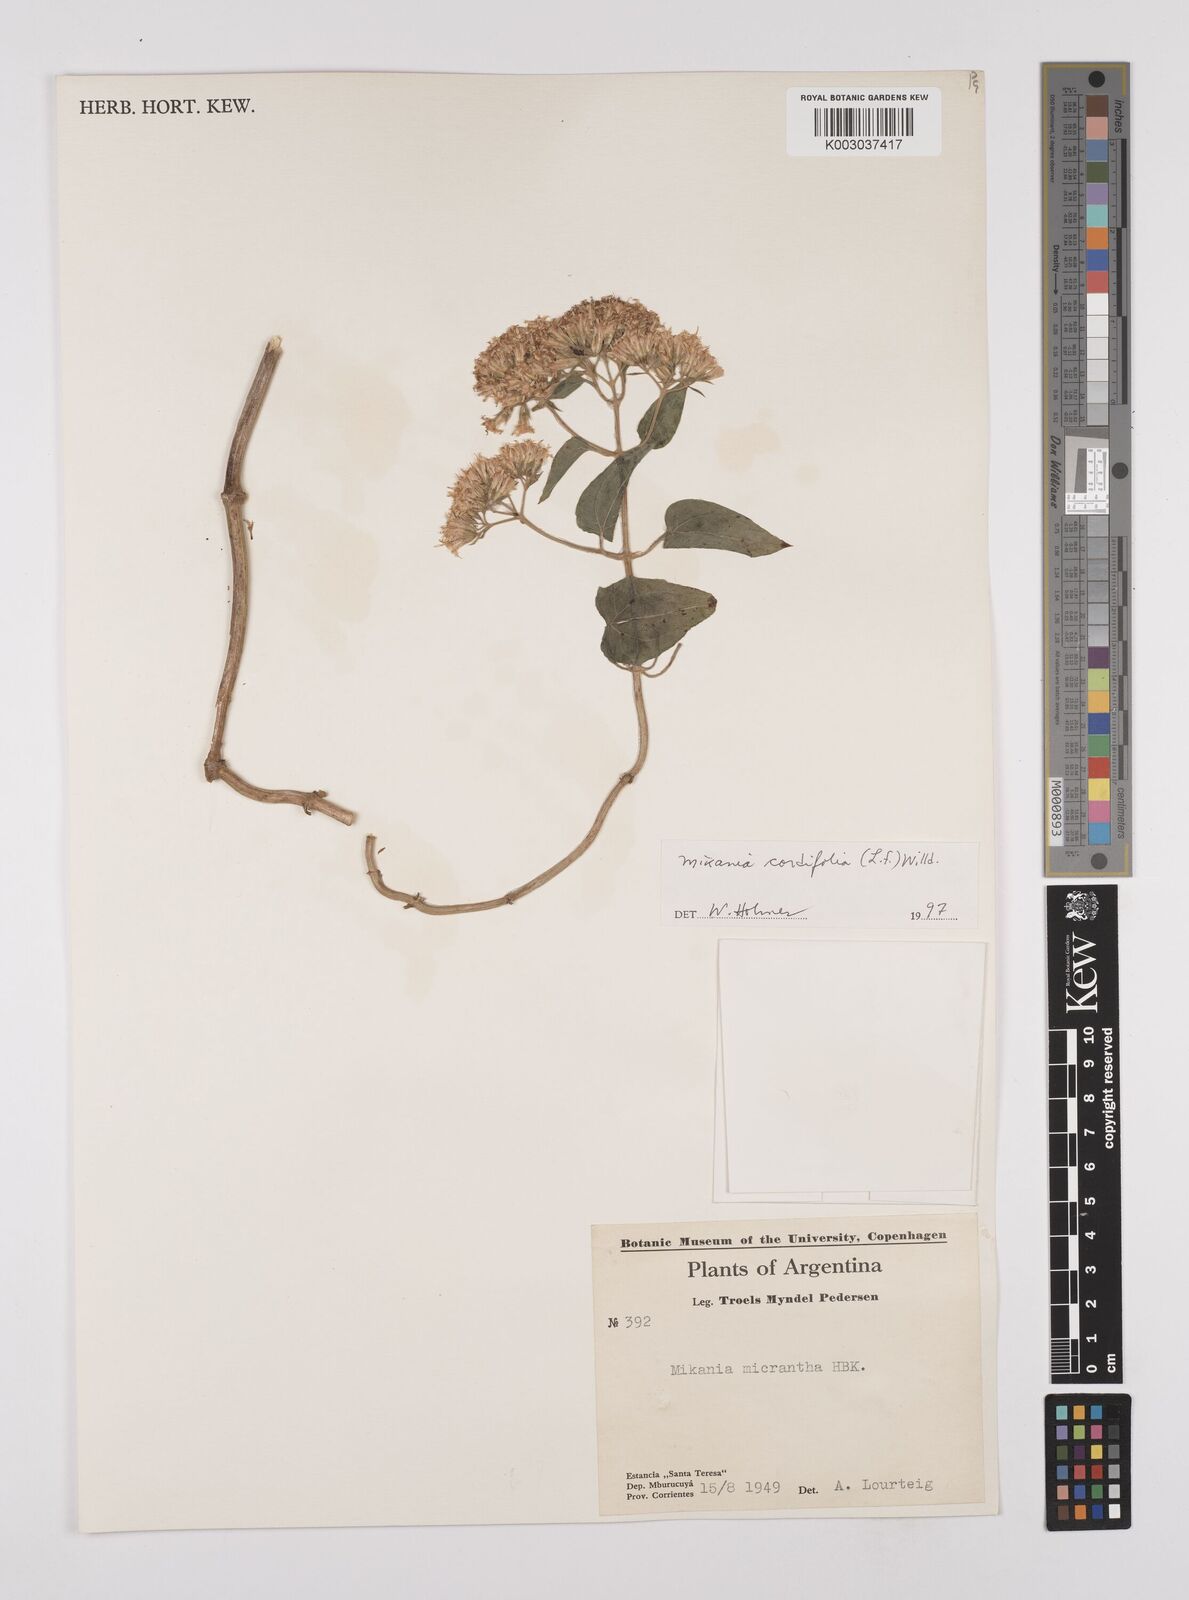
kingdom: Plantae
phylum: Tracheophyta
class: Magnoliopsida
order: Asterales
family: Asteraceae
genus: Mikania
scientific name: Mikania cordifolia
